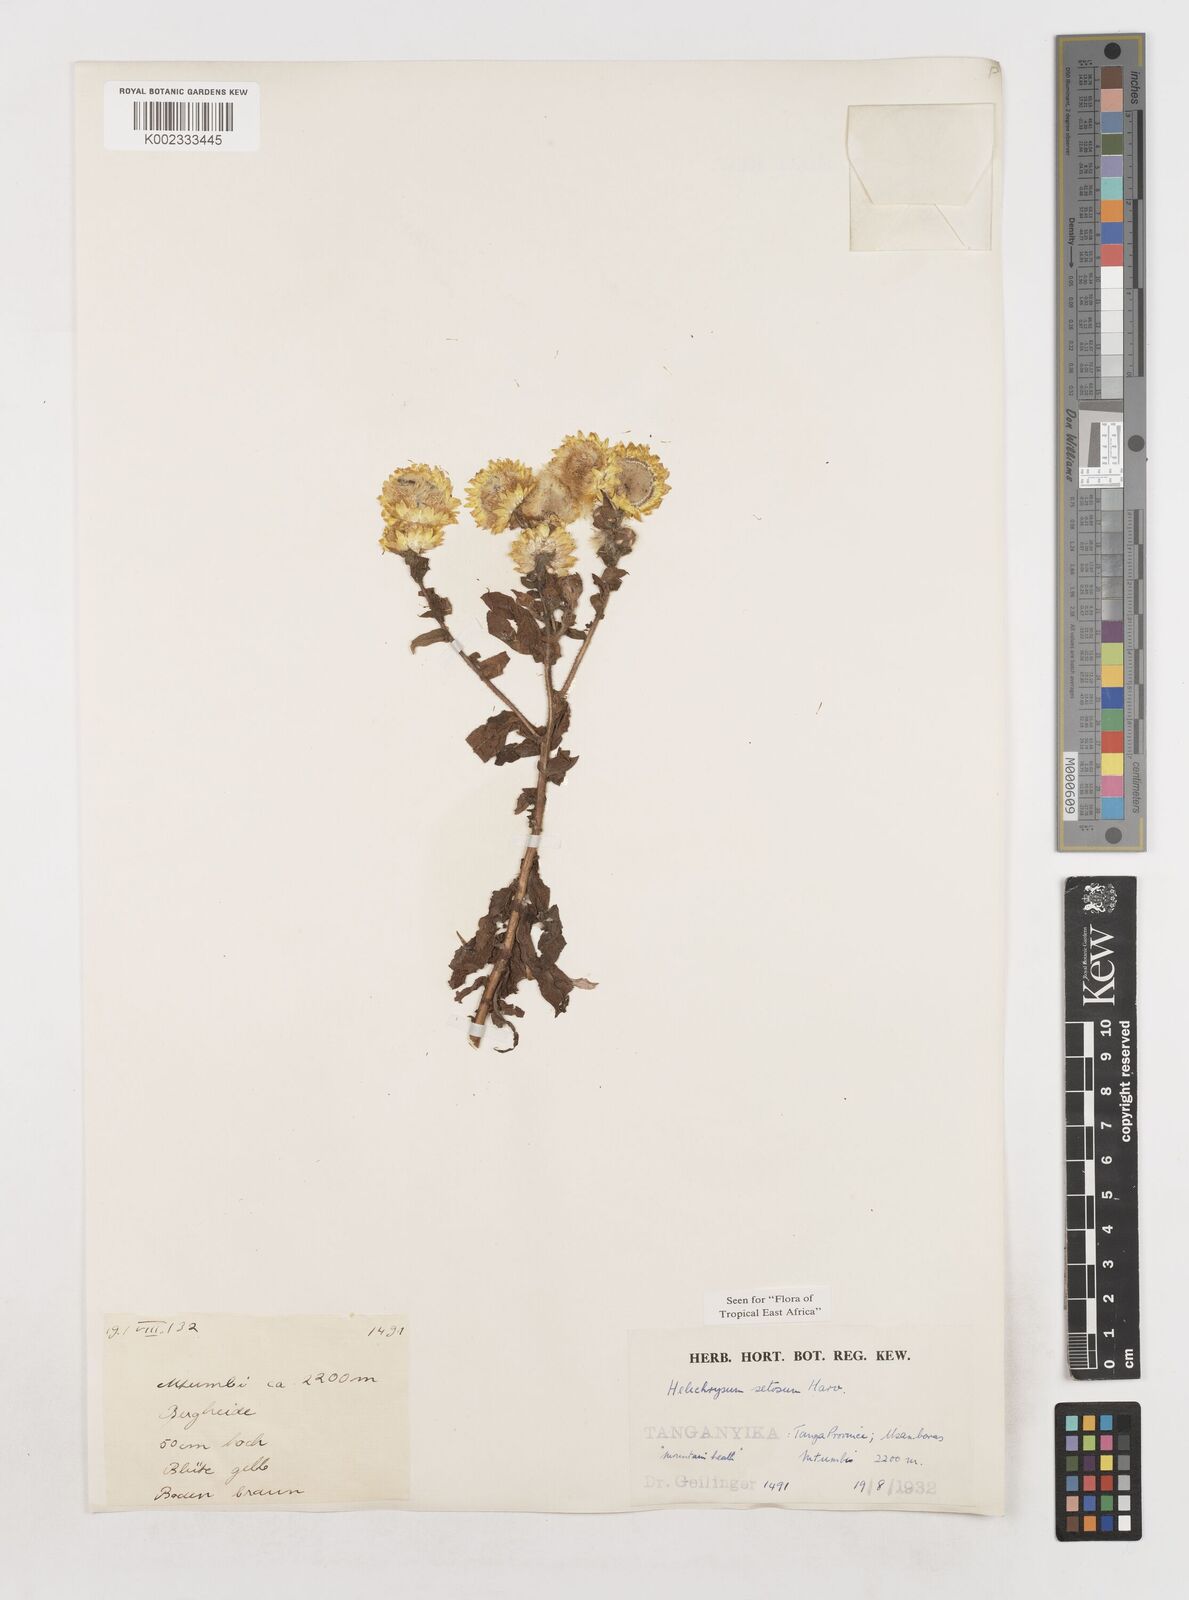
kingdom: Plantae
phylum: Tracheophyta
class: Magnoliopsida
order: Asterales
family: Asteraceae
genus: Helichrysum
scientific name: Helichrysum setosum
